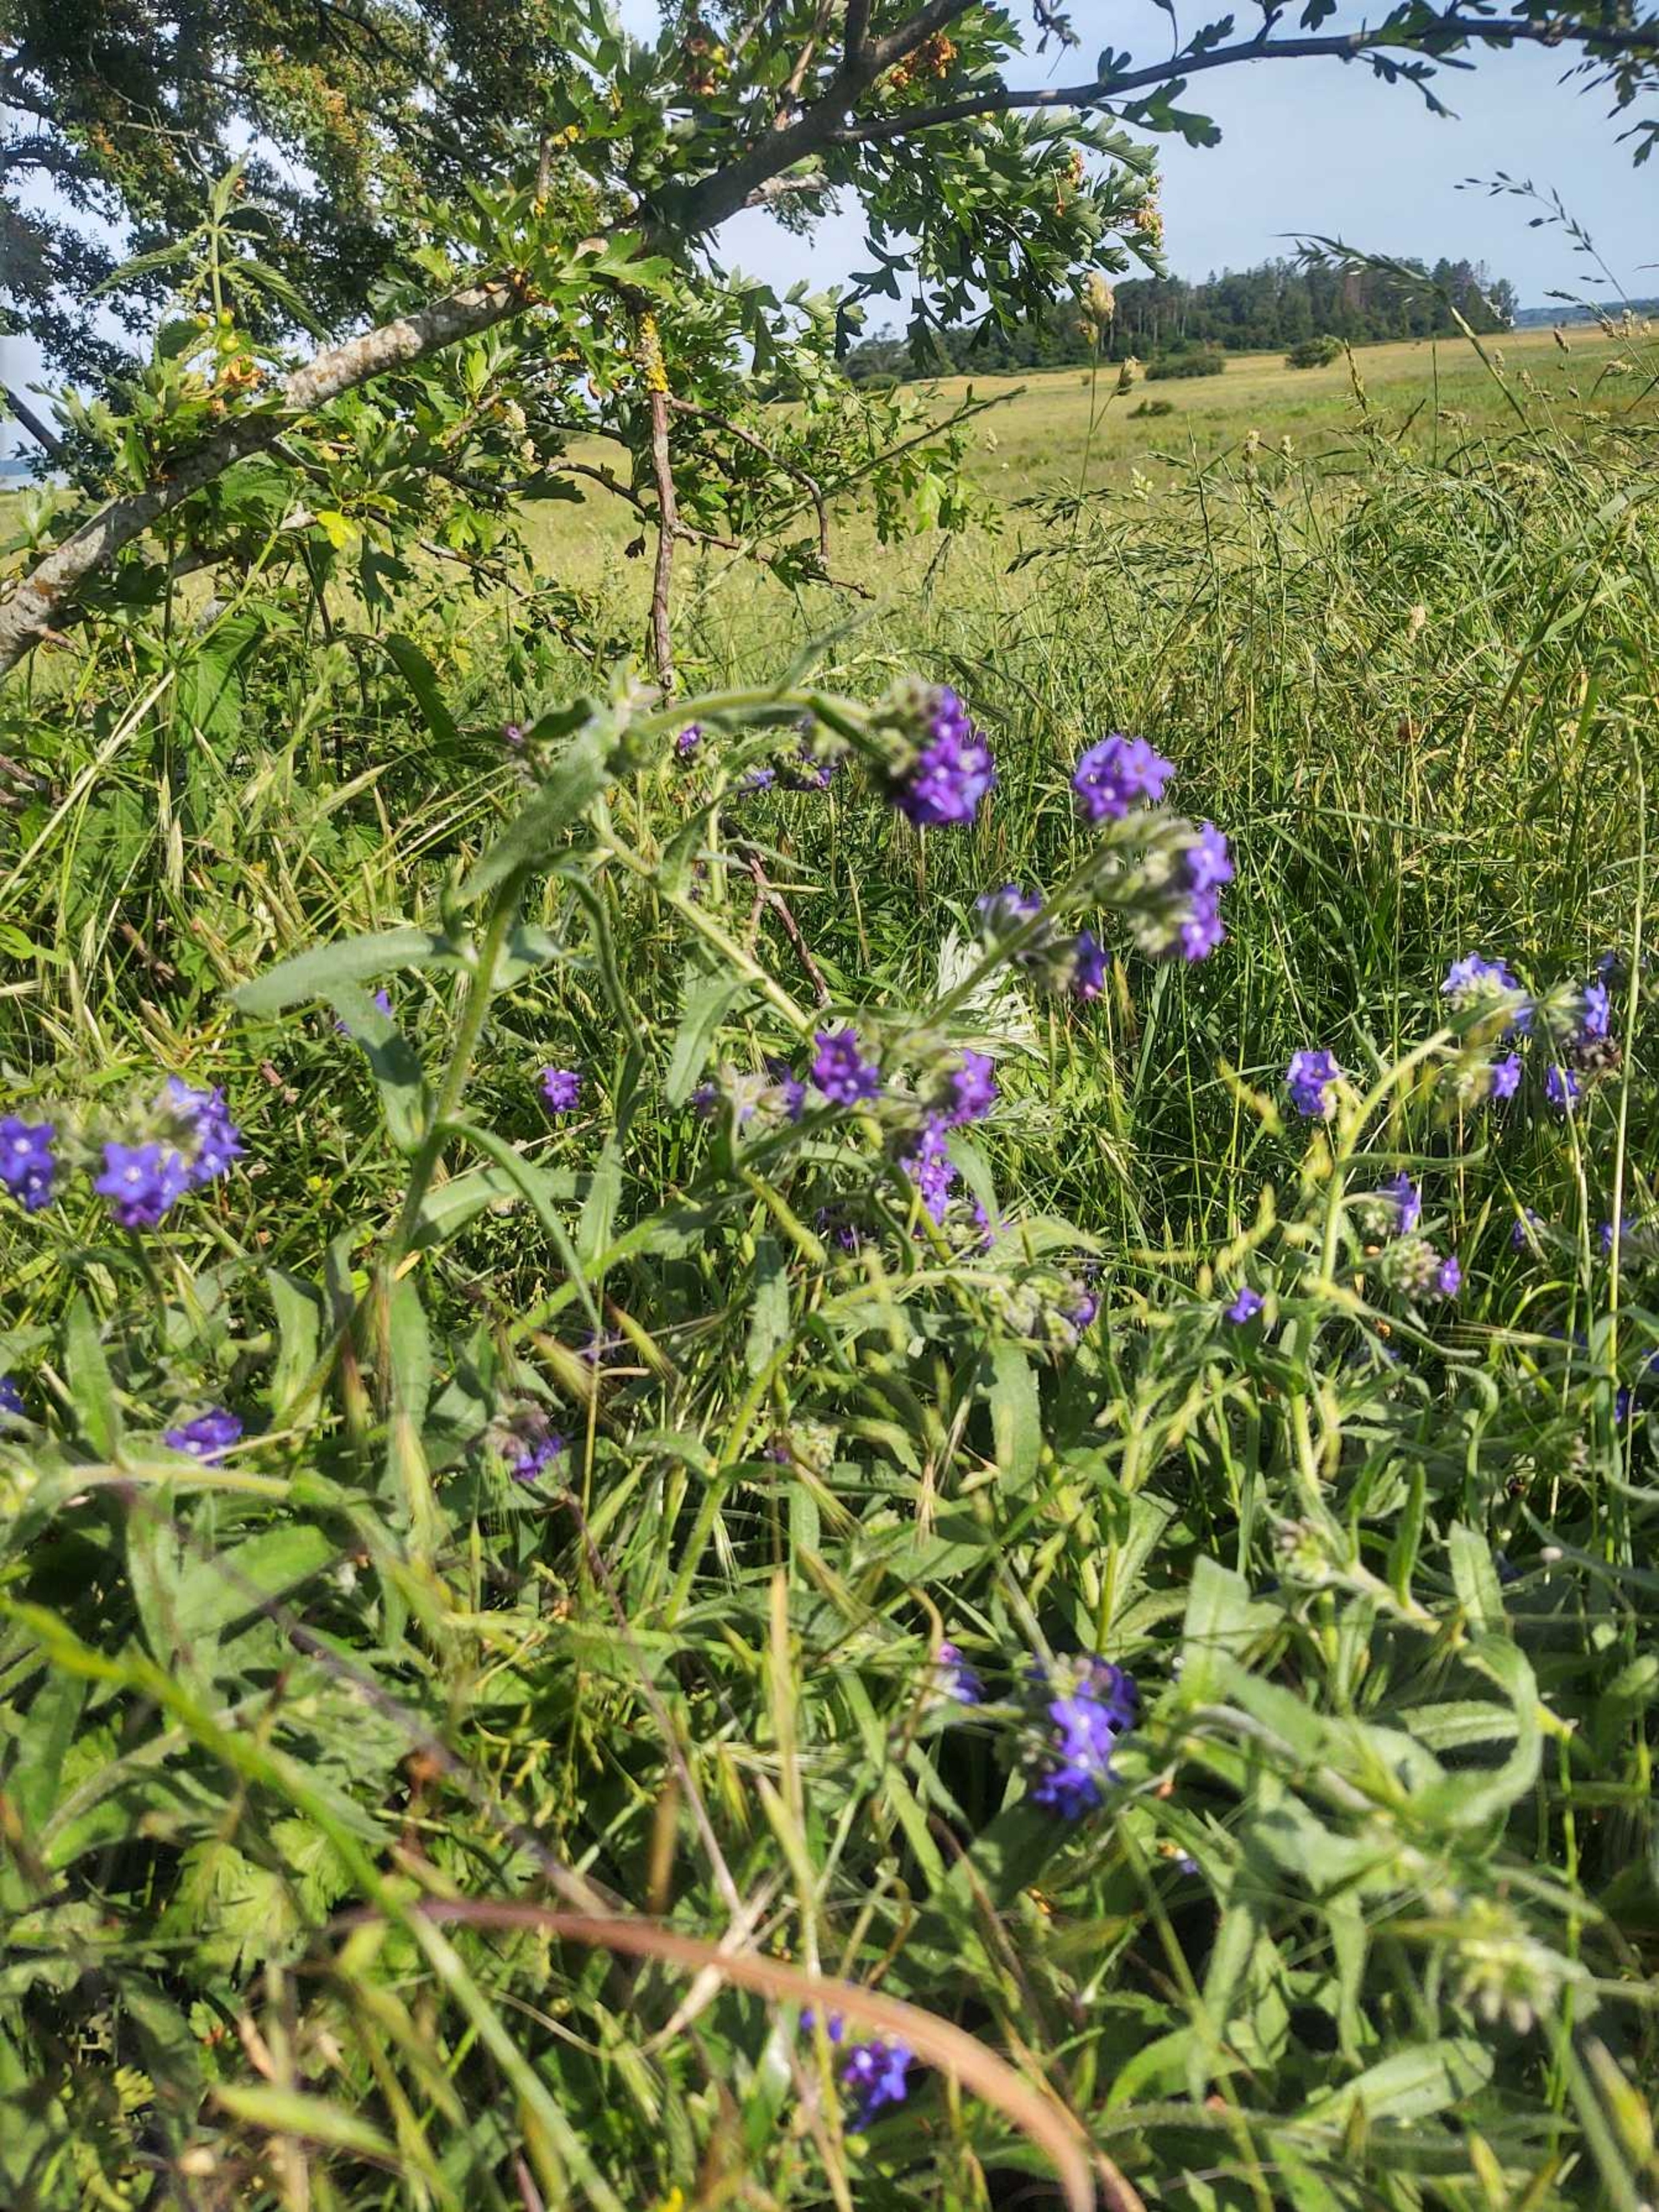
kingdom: Plantae
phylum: Tracheophyta
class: Magnoliopsida
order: Boraginales
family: Boraginaceae
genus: Anchusa
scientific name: Anchusa officinalis
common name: Læge-oksetunge
